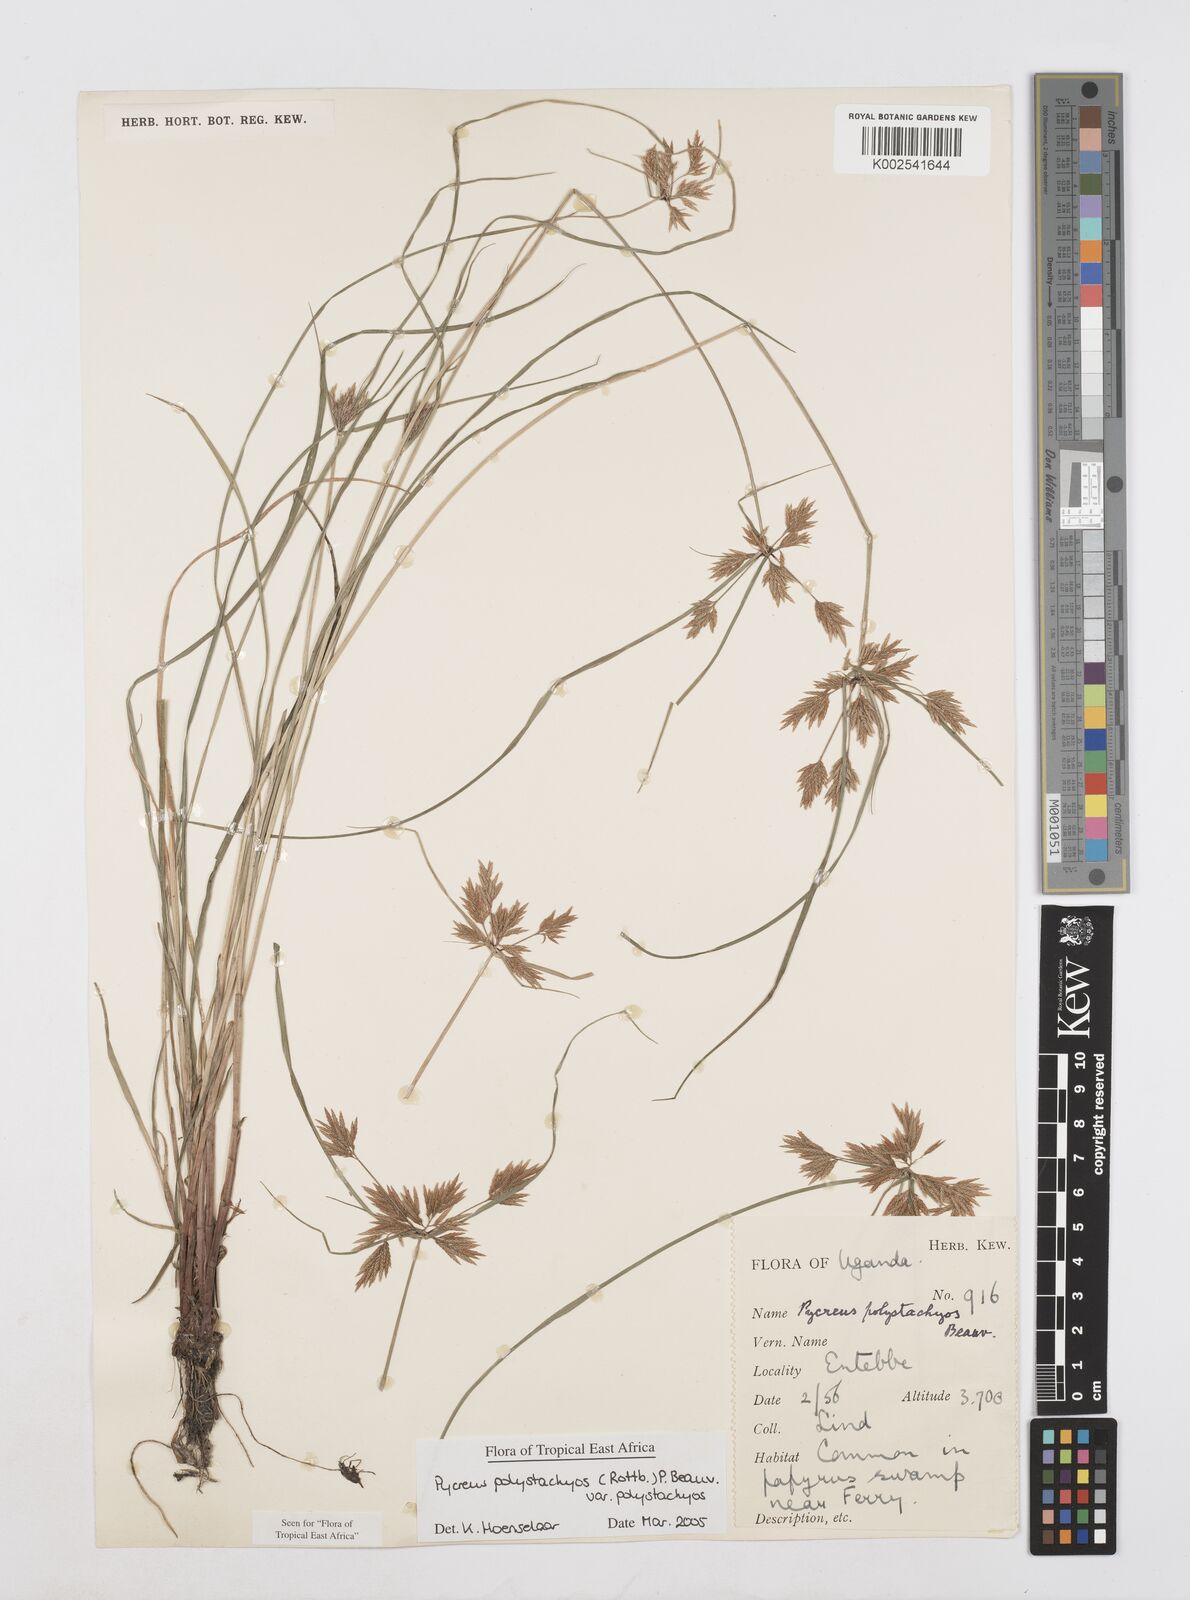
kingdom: Plantae
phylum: Tracheophyta
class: Liliopsida
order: Poales
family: Cyperaceae
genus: Cyperus
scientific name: Cyperus polystachyos
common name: Bunchy flat sedge
